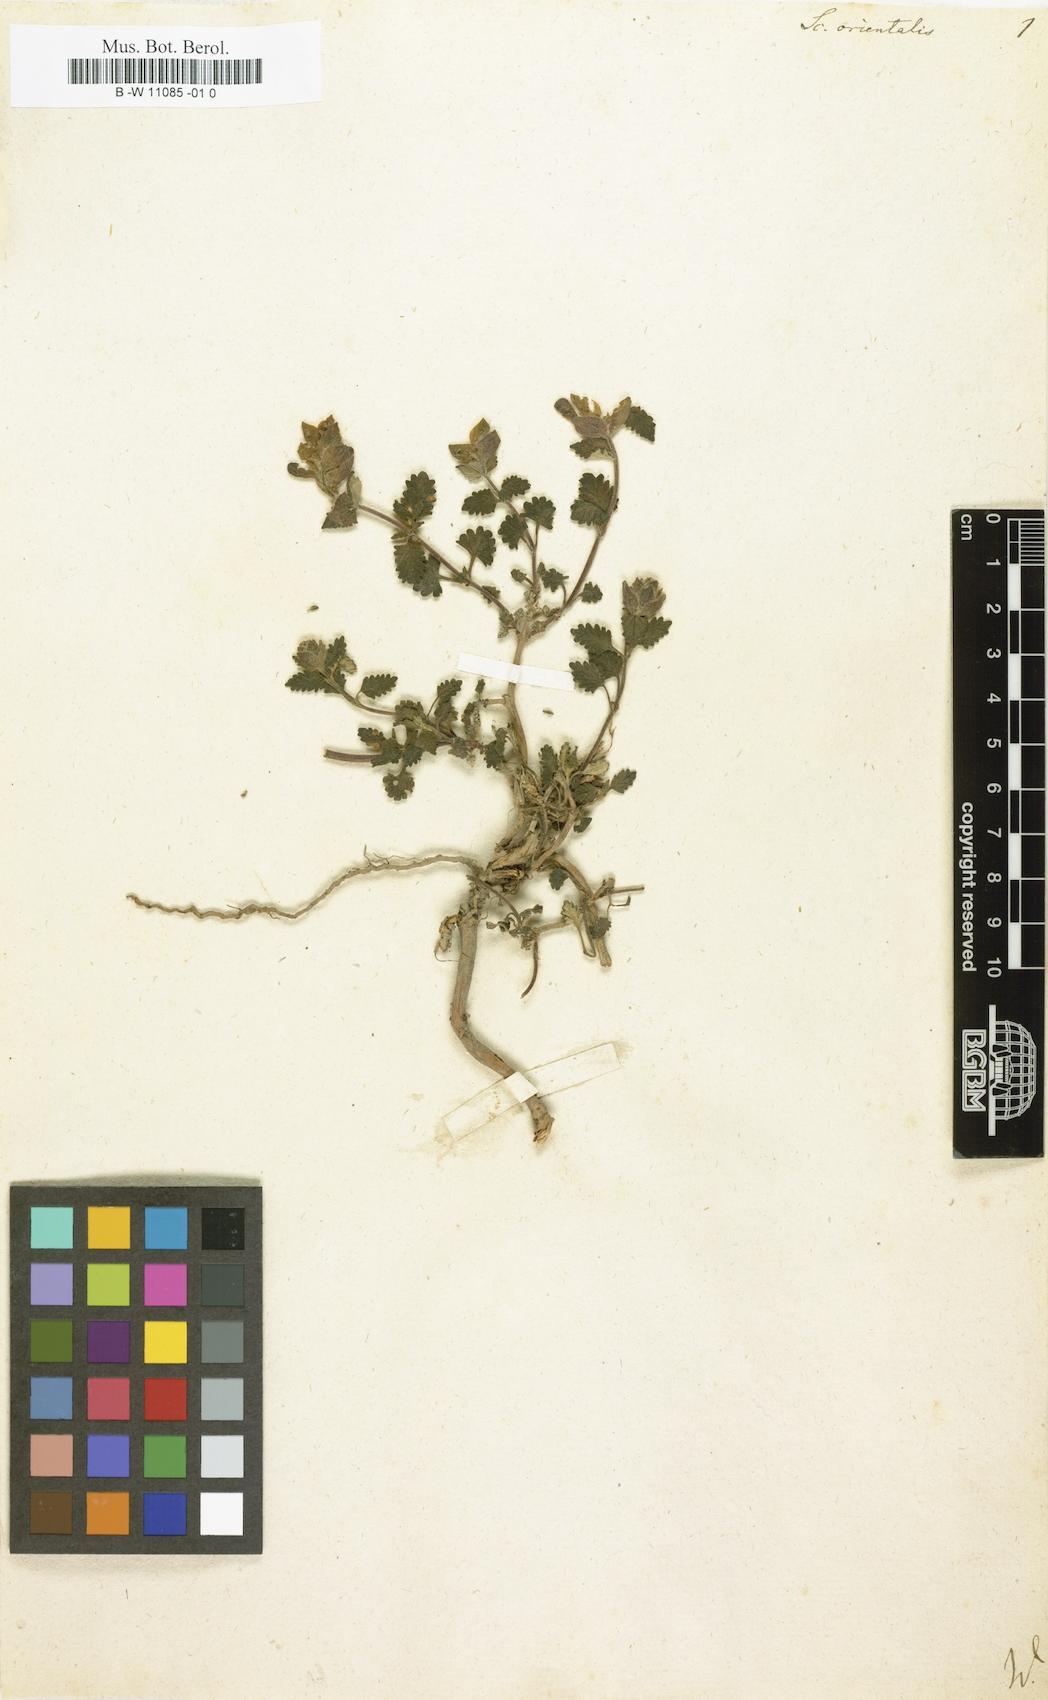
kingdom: Plantae
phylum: Tracheophyta
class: Magnoliopsida
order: Lamiales
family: Lamiaceae
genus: Scutellaria
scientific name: Scutellaria orientalis
